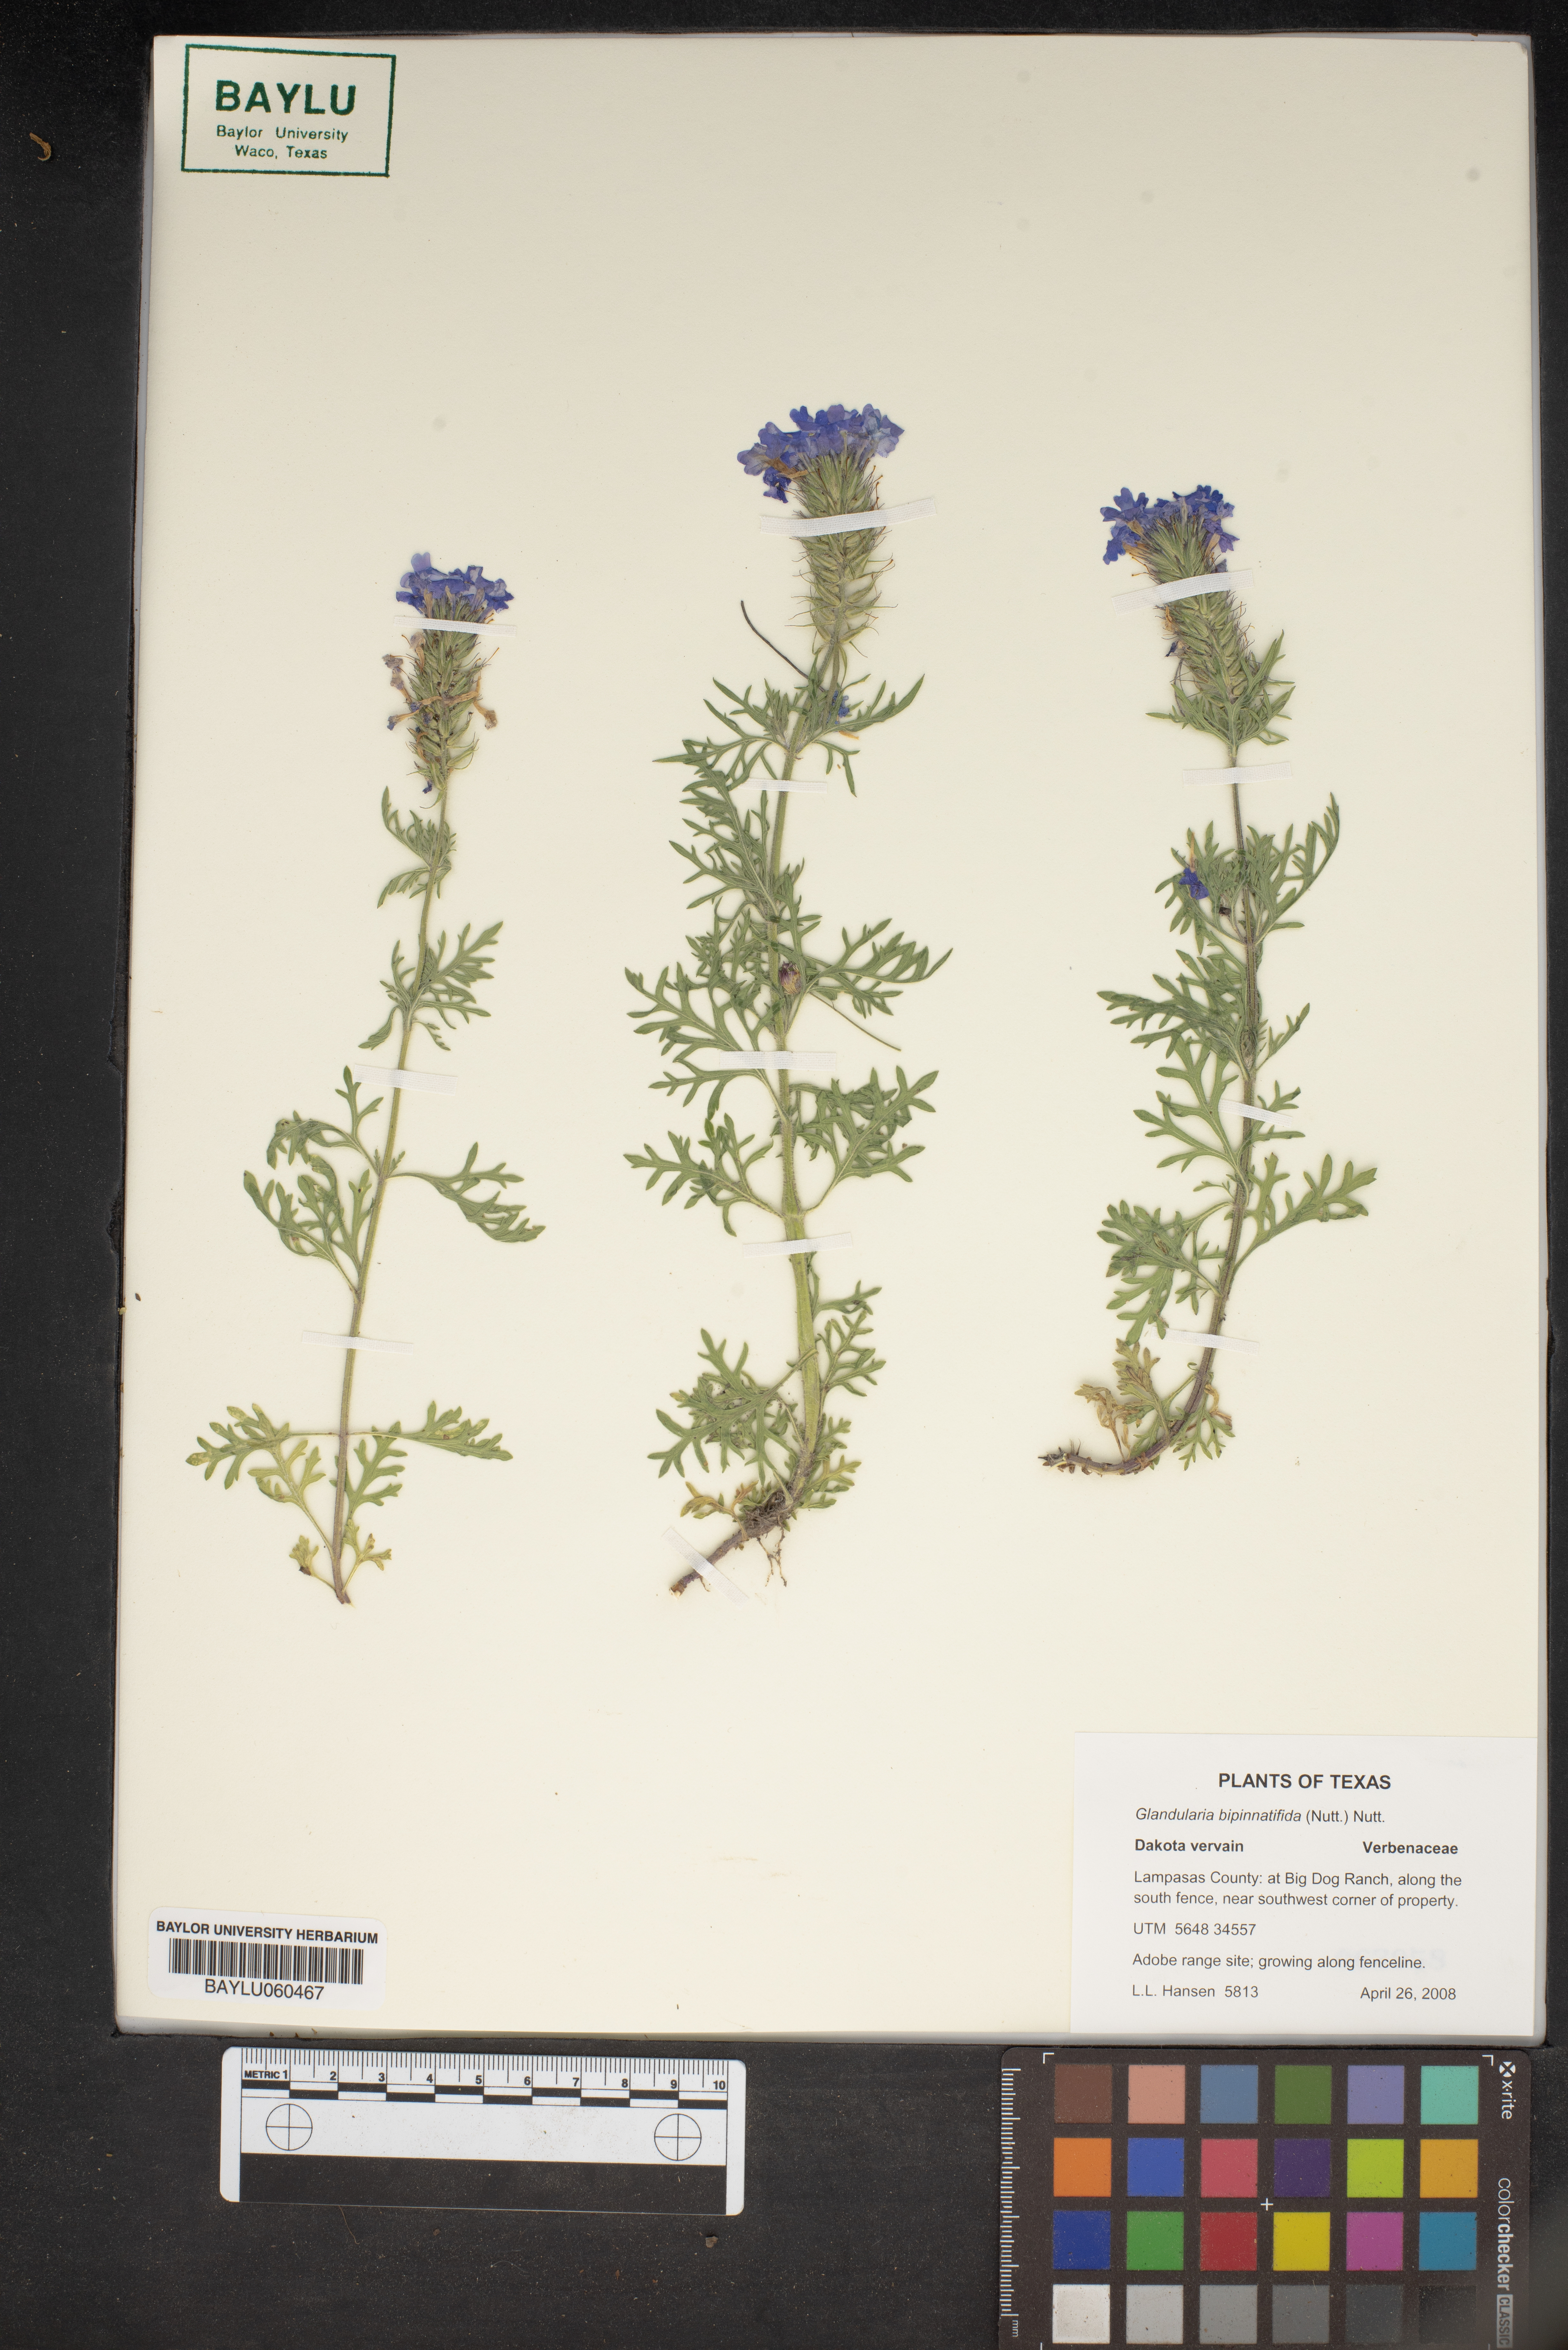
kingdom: Plantae
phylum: Tracheophyta
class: Magnoliopsida
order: Lamiales
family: Verbenaceae
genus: Verbena
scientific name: Verbena bipinnatifida
